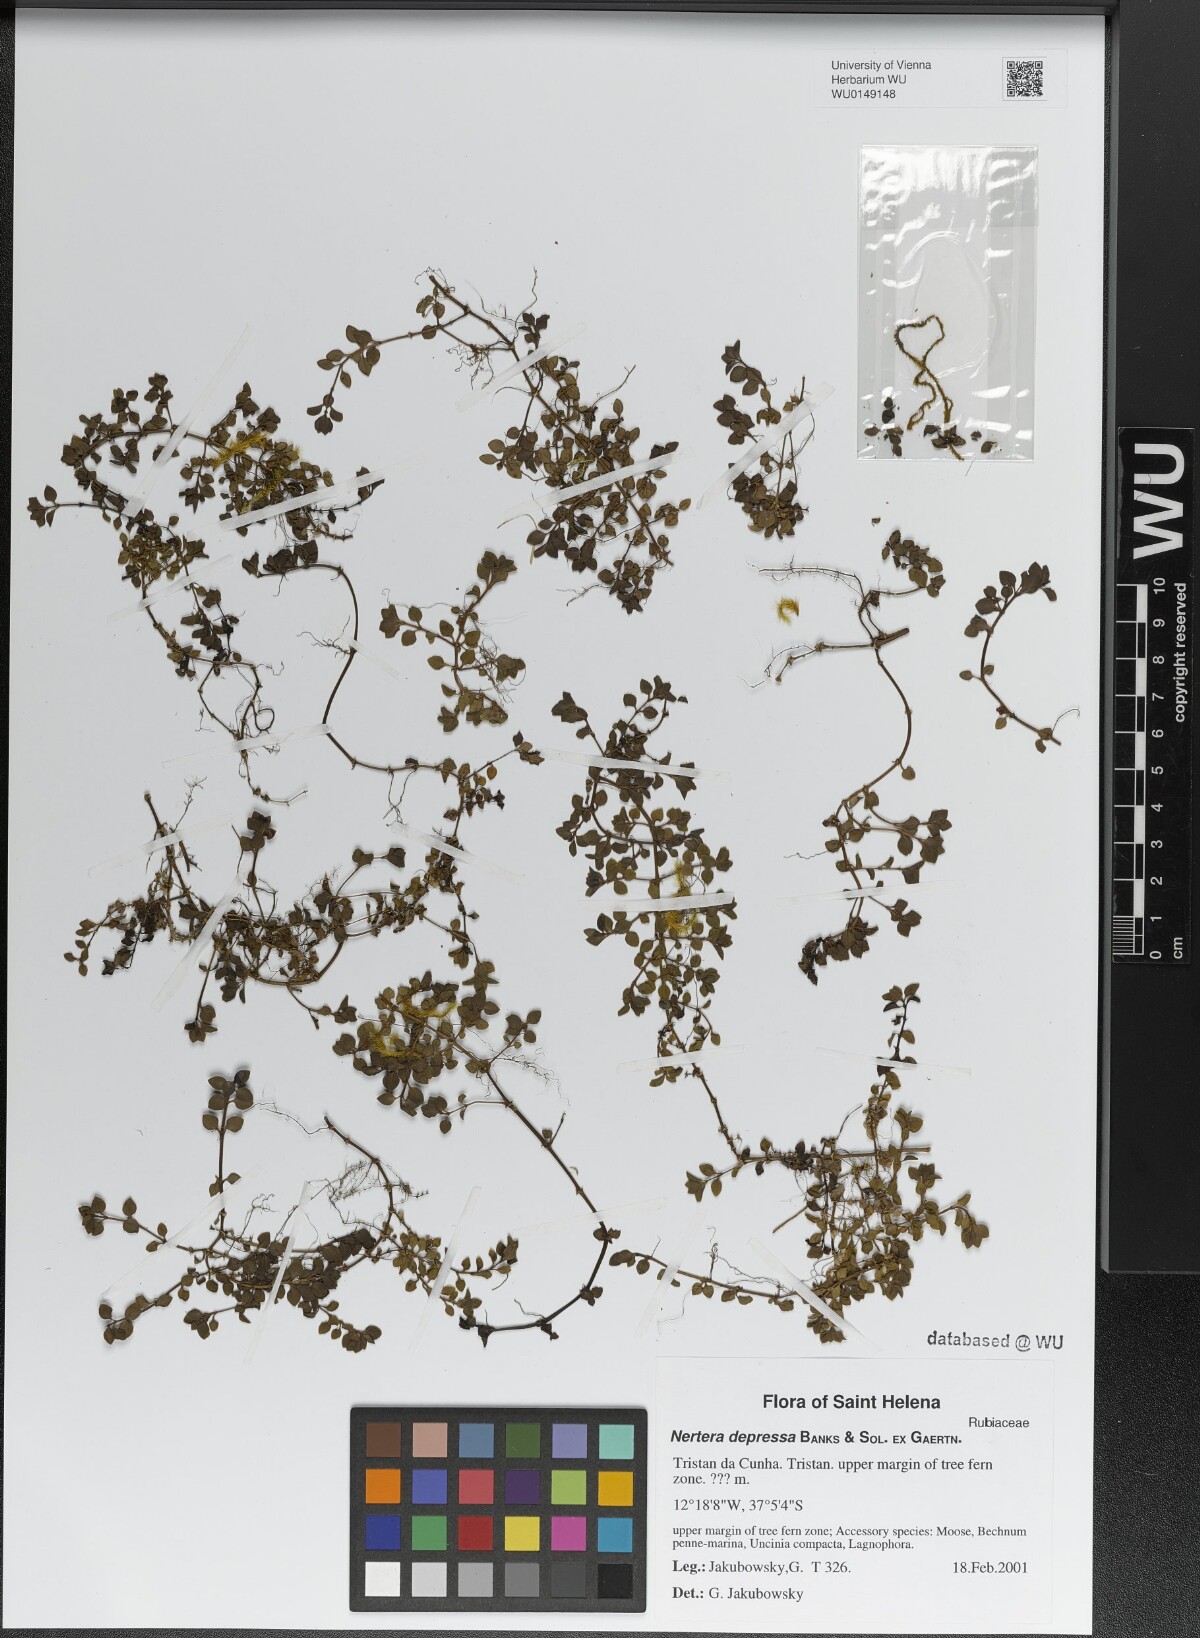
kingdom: Plantae
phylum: Tracheophyta
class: Magnoliopsida
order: Gentianales
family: Rubiaceae
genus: Nertera
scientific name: Nertera granadensis
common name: Beadplant
